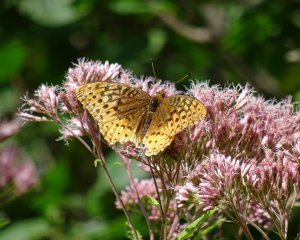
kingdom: Animalia
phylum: Arthropoda
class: Insecta
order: Lepidoptera
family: Nymphalidae
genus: Speyeria
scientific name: Speyeria cybele
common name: Great Spangled Fritillary
